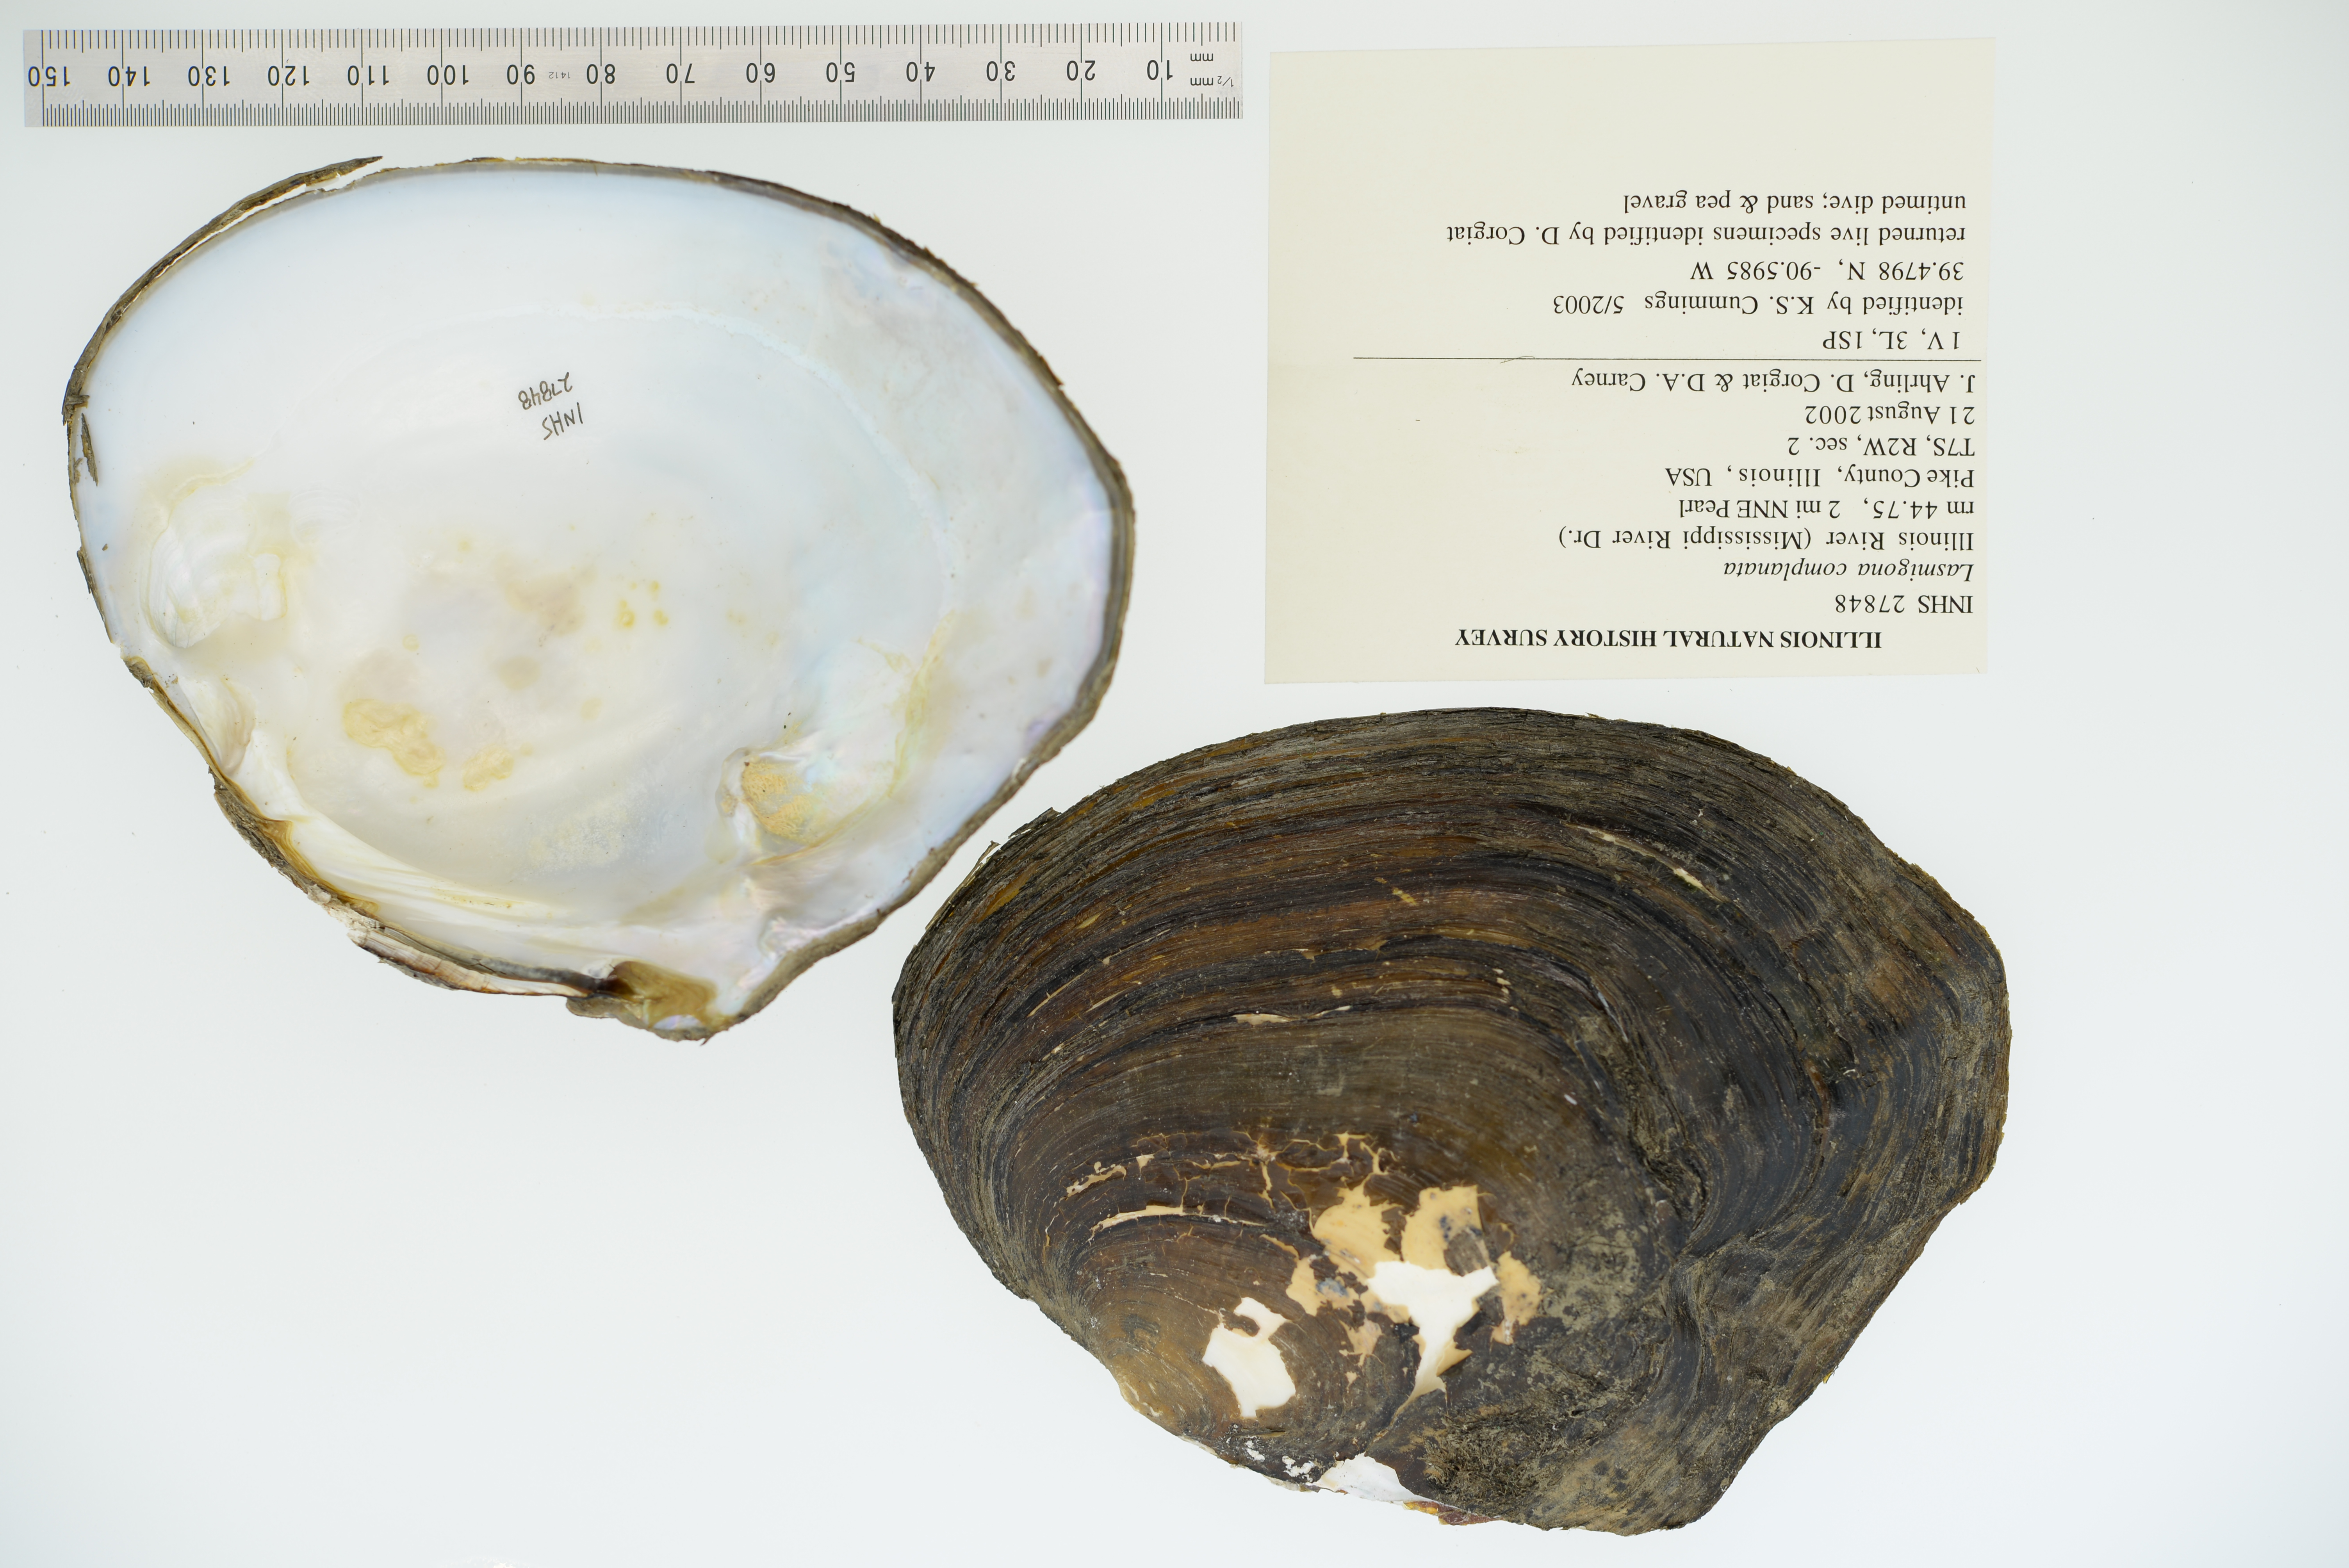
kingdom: Animalia
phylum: Mollusca
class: Bivalvia
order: Unionida
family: Unionidae
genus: Lasmigona
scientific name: Lasmigona complanata
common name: White heelsplitter
